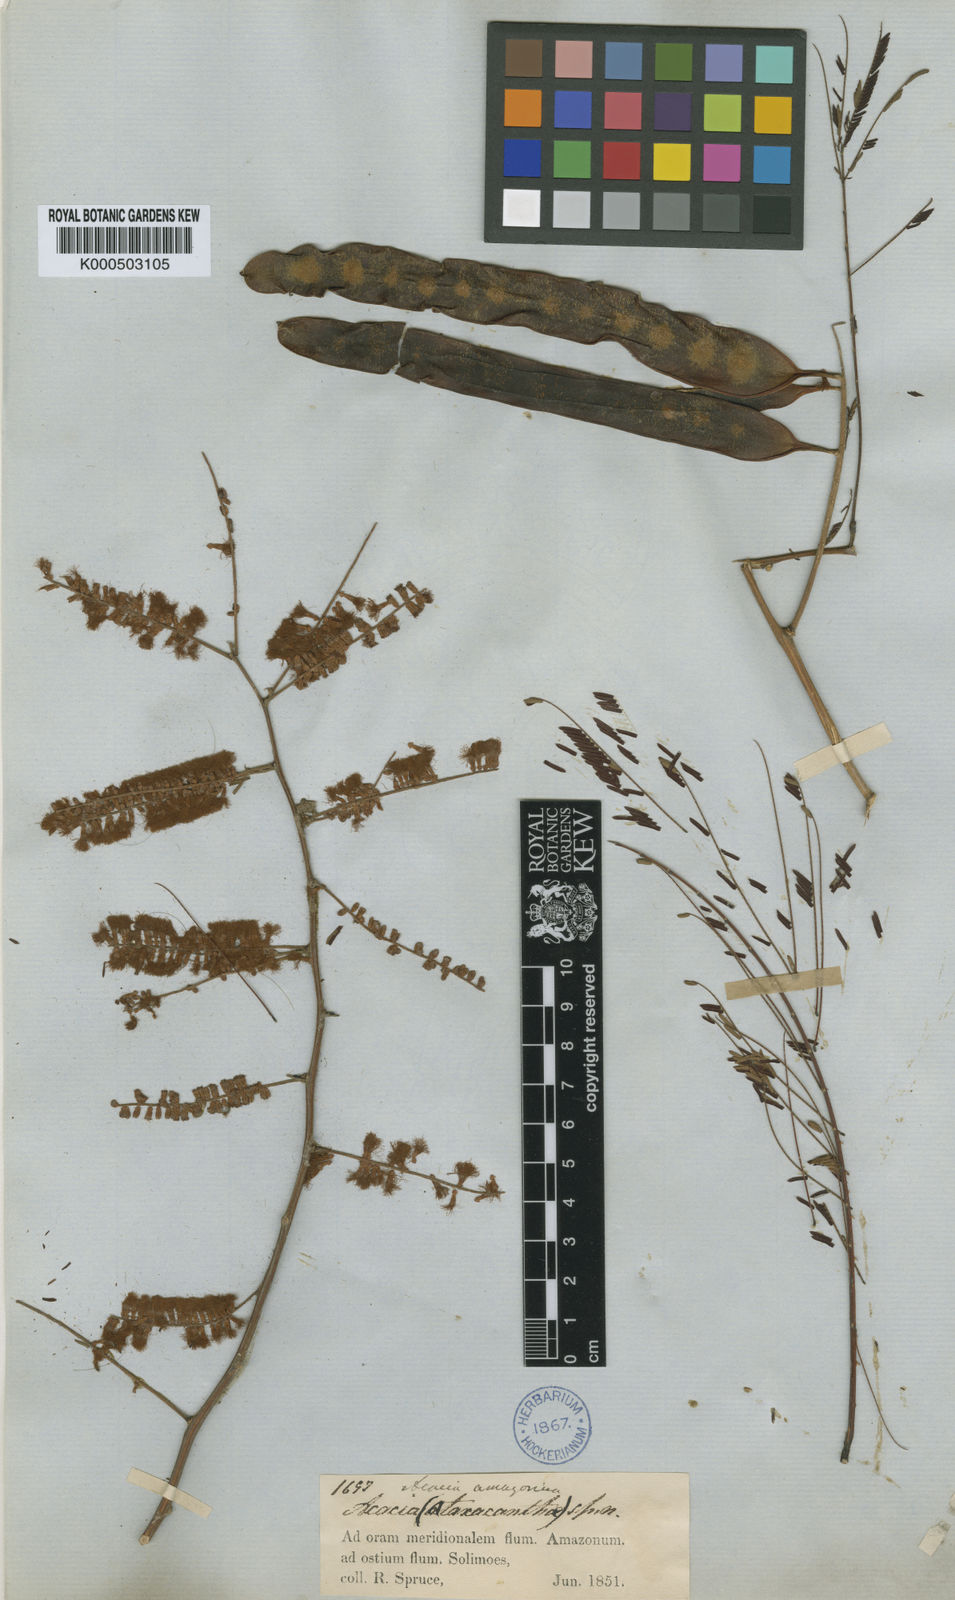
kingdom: Plantae
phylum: Tracheophyta
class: Magnoliopsida
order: Fabales
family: Fabaceae
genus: Senegalia
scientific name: Senegalia amazonica
